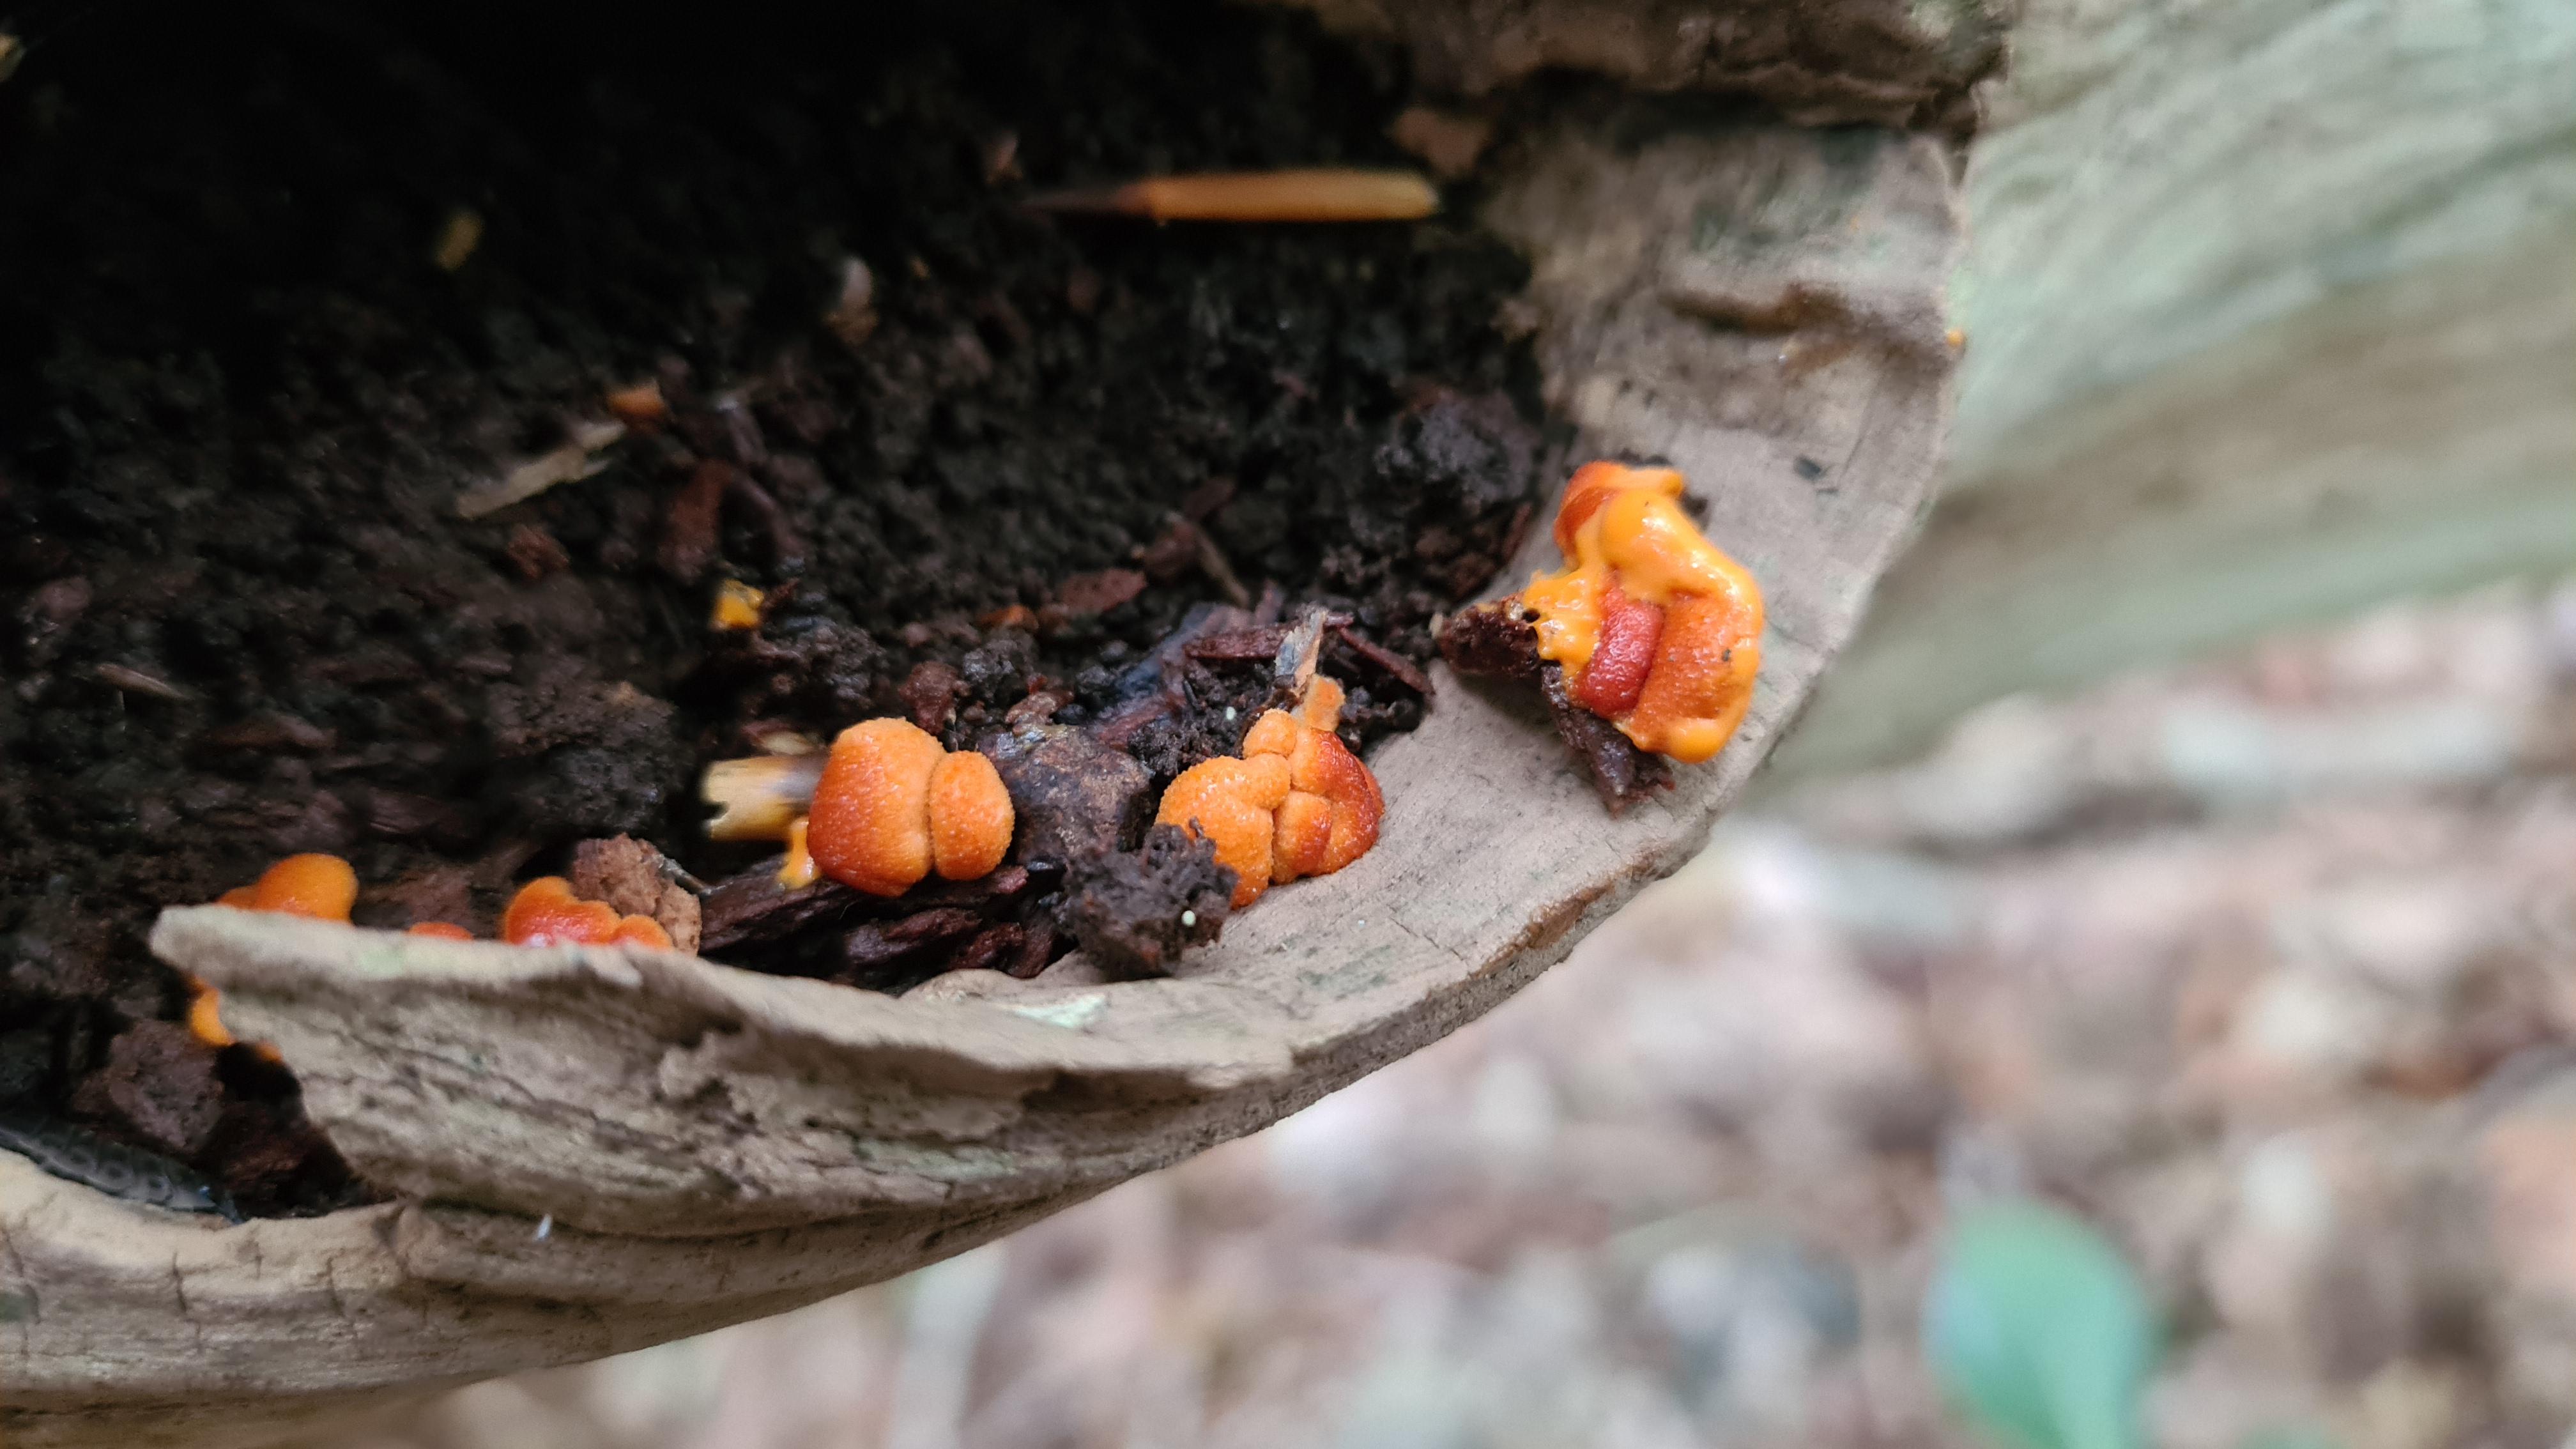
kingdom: Protozoa
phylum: Mycetozoa
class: Myxomycetes
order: Cribrariales
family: Tubiferaceae
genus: Lycogala
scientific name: Lycogala epidendrum
